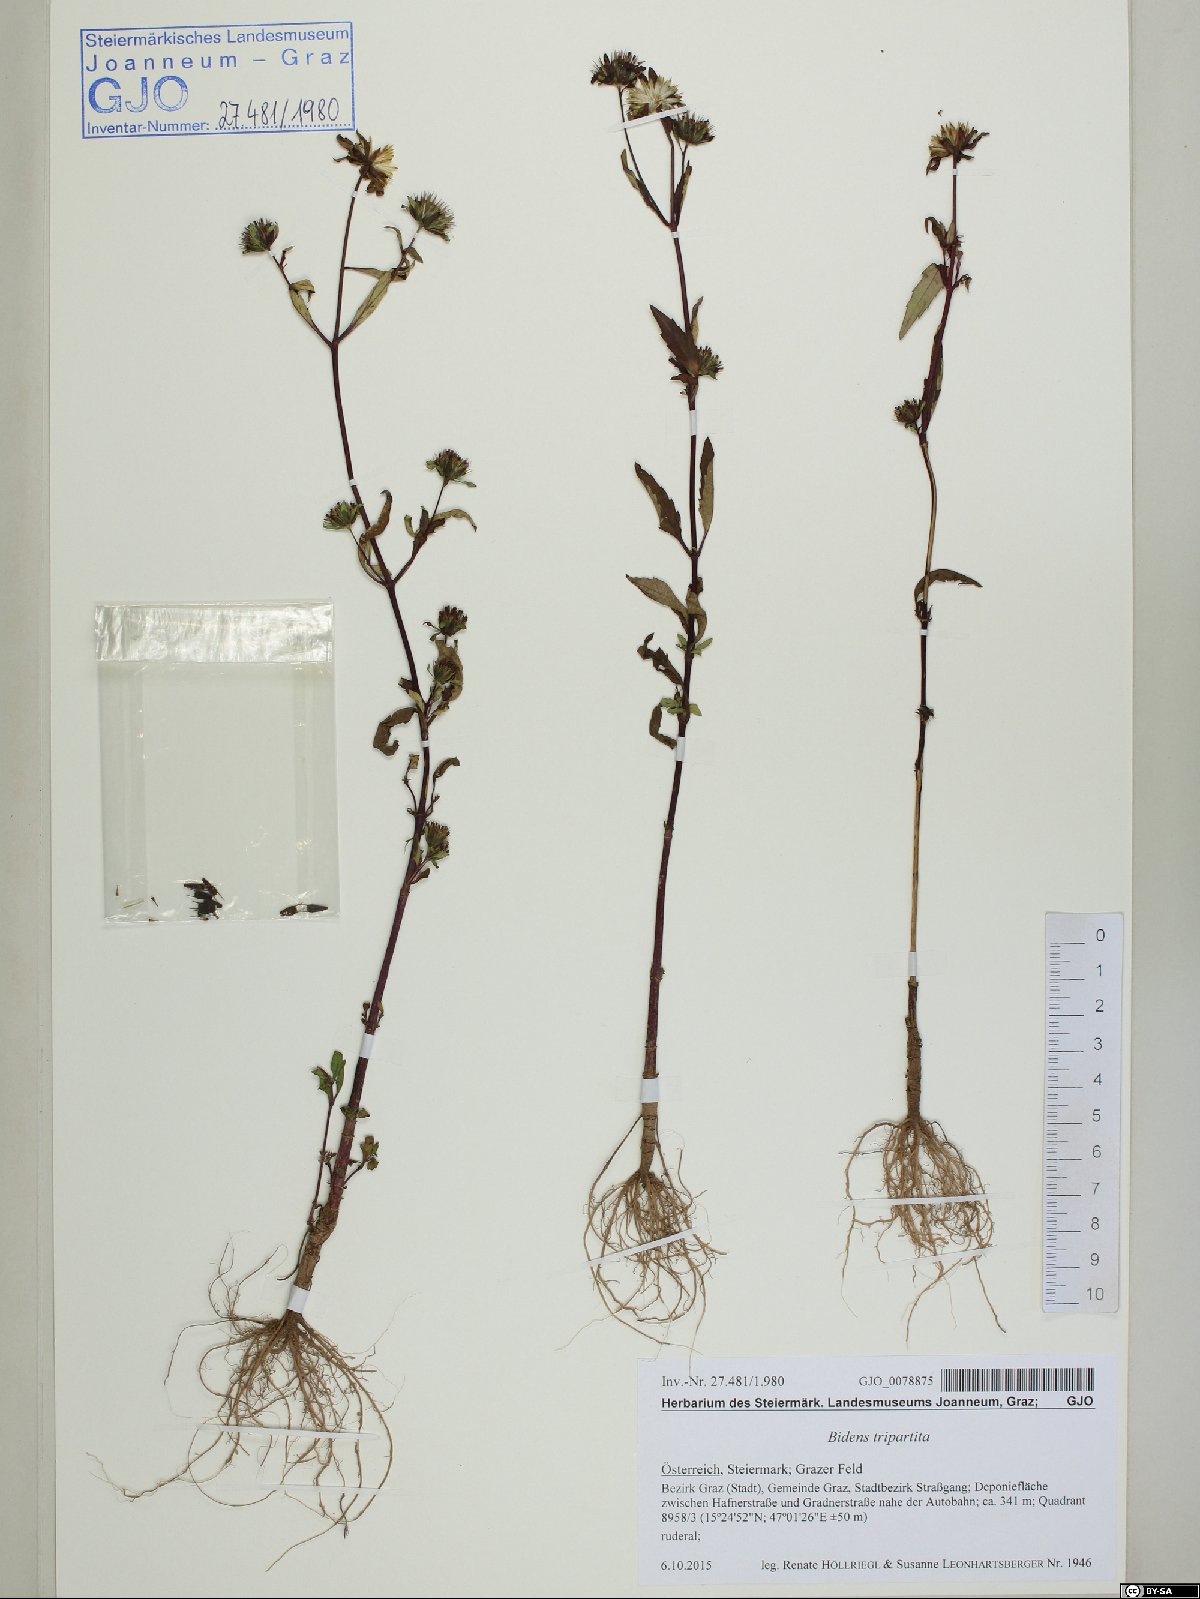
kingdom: Plantae
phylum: Tracheophyta
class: Magnoliopsida
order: Asterales
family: Asteraceae
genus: Bidens
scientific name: Bidens tripartita
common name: Trifid bur-marigold
